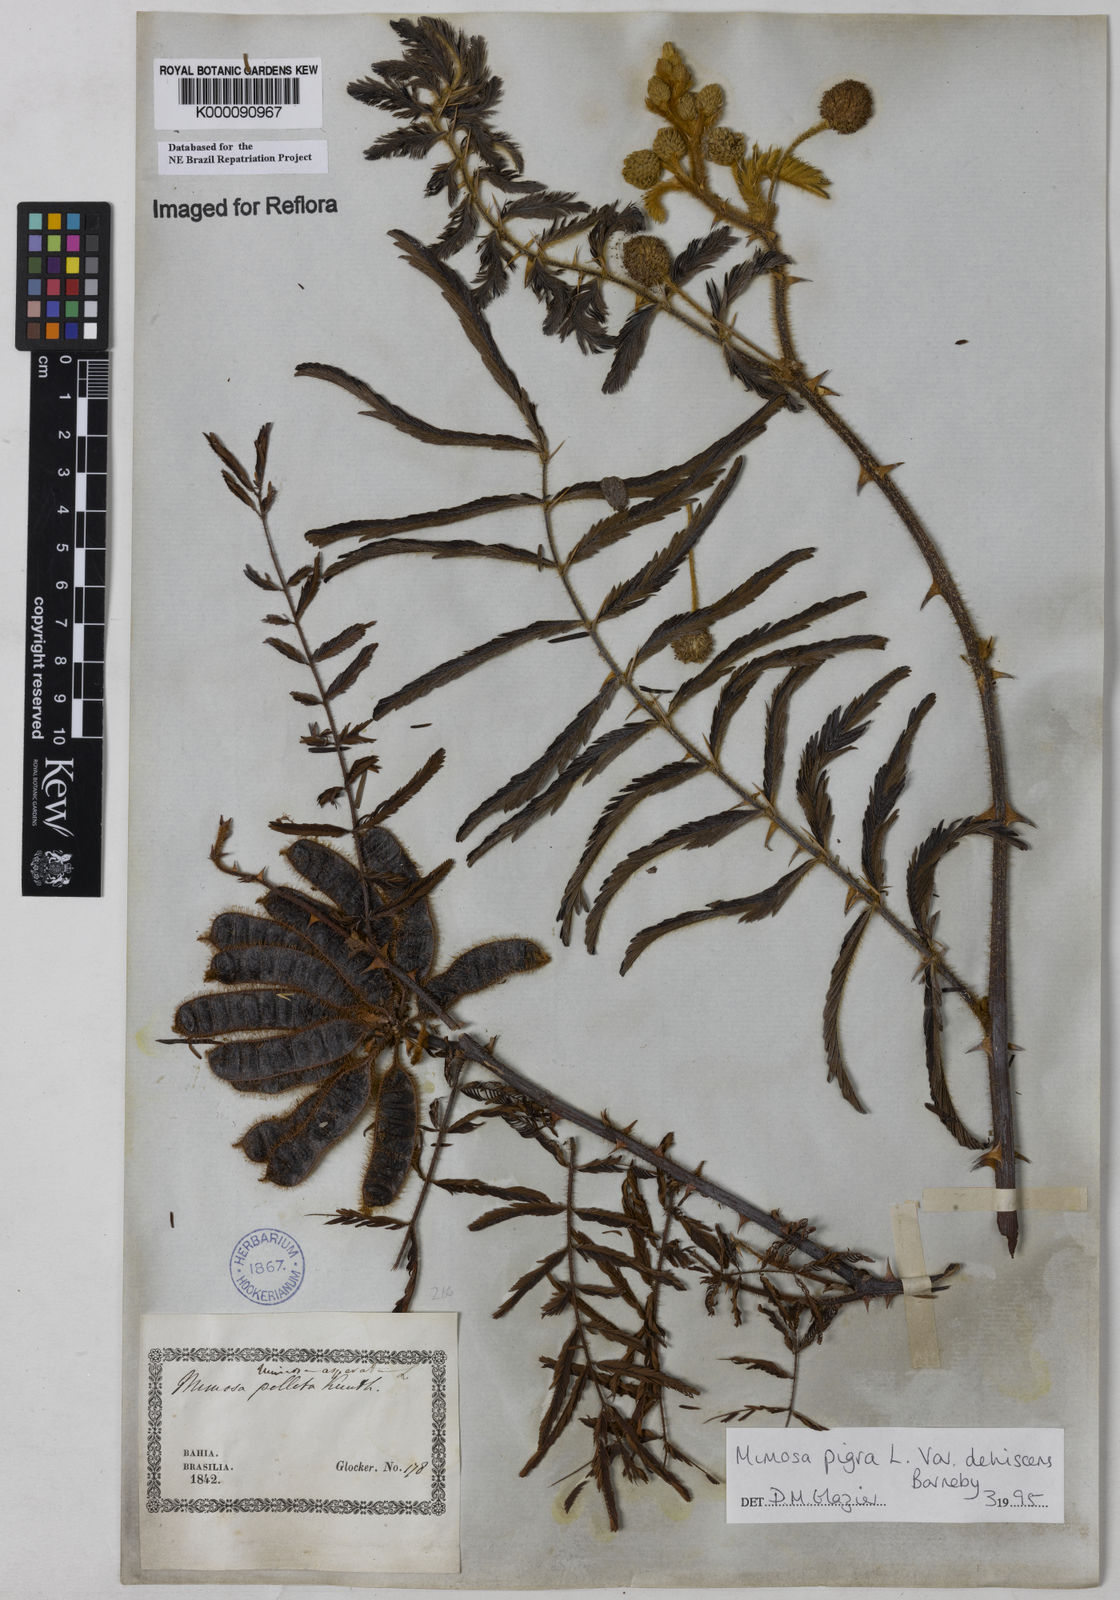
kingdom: Plantae
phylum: Tracheophyta
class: Magnoliopsida
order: Fabales
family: Fabaceae
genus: Mimosa
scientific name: Mimosa pigra
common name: Black mimosa
